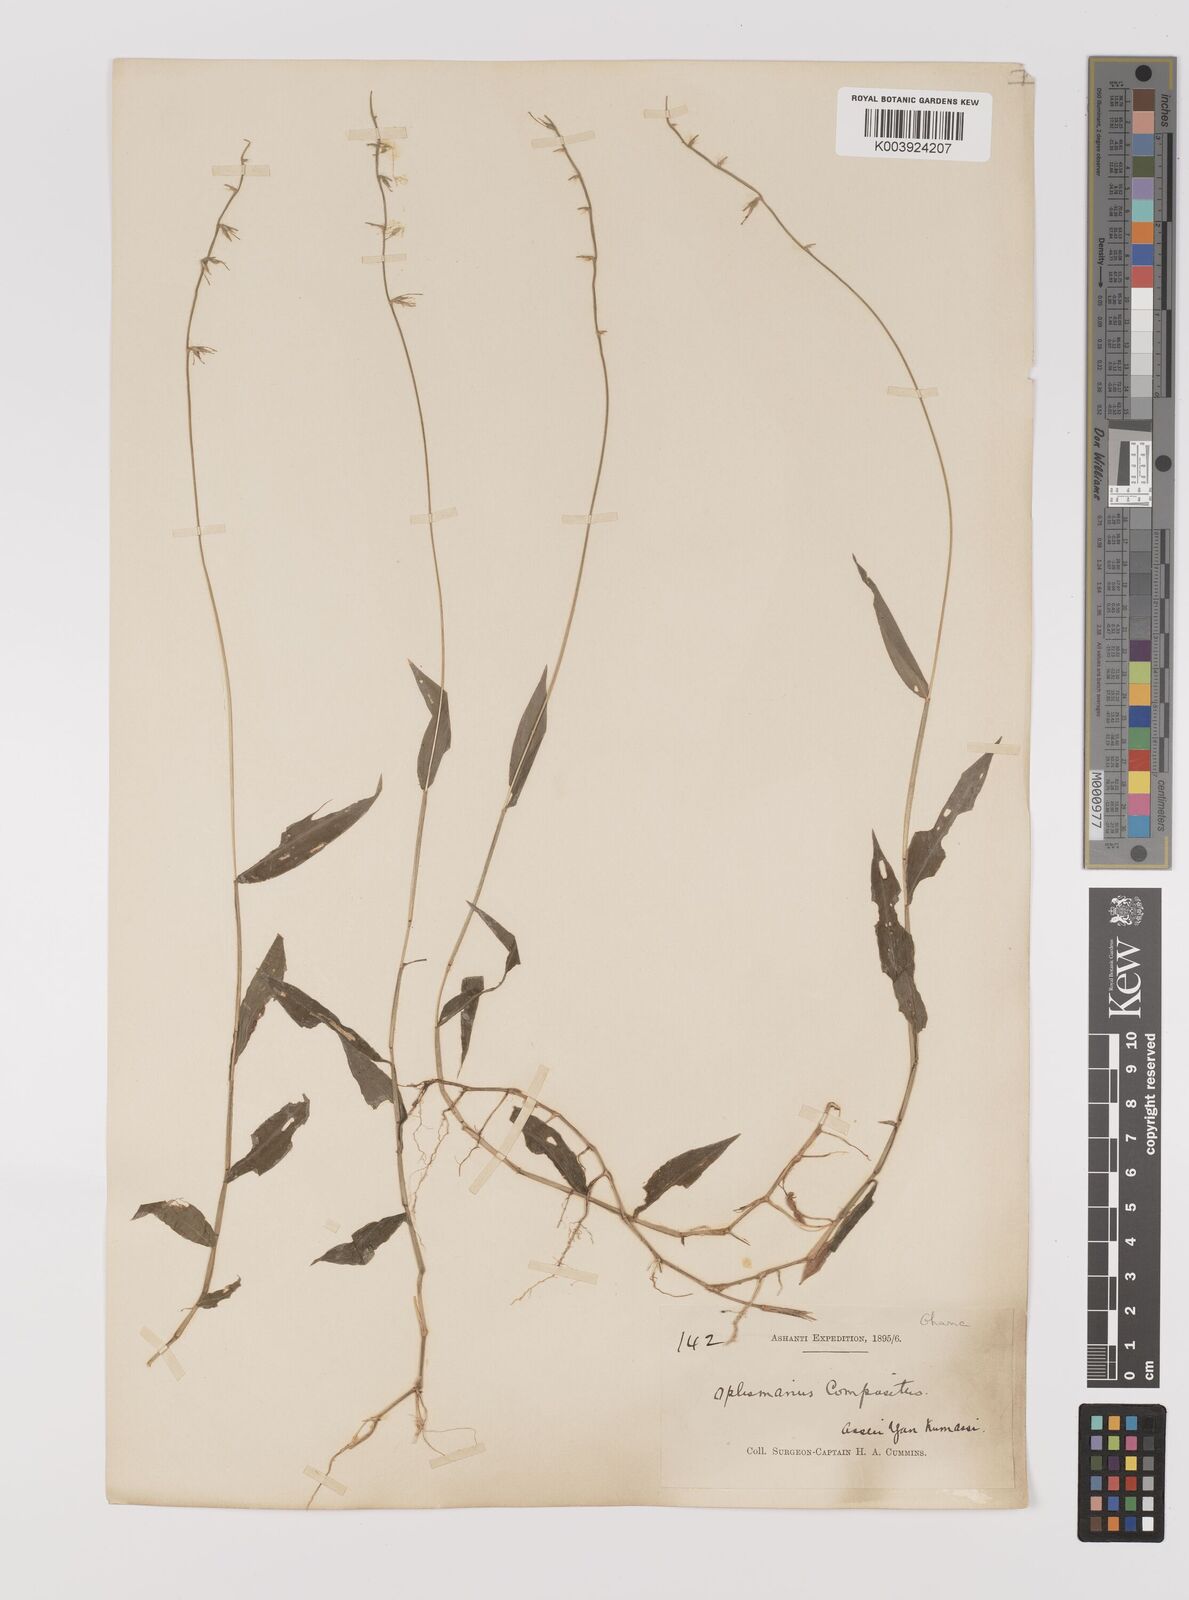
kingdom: Plantae
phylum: Tracheophyta
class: Liliopsida
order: Poales
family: Poaceae
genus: Oplismenus
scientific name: Oplismenus hirtellus
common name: Basketgrass
